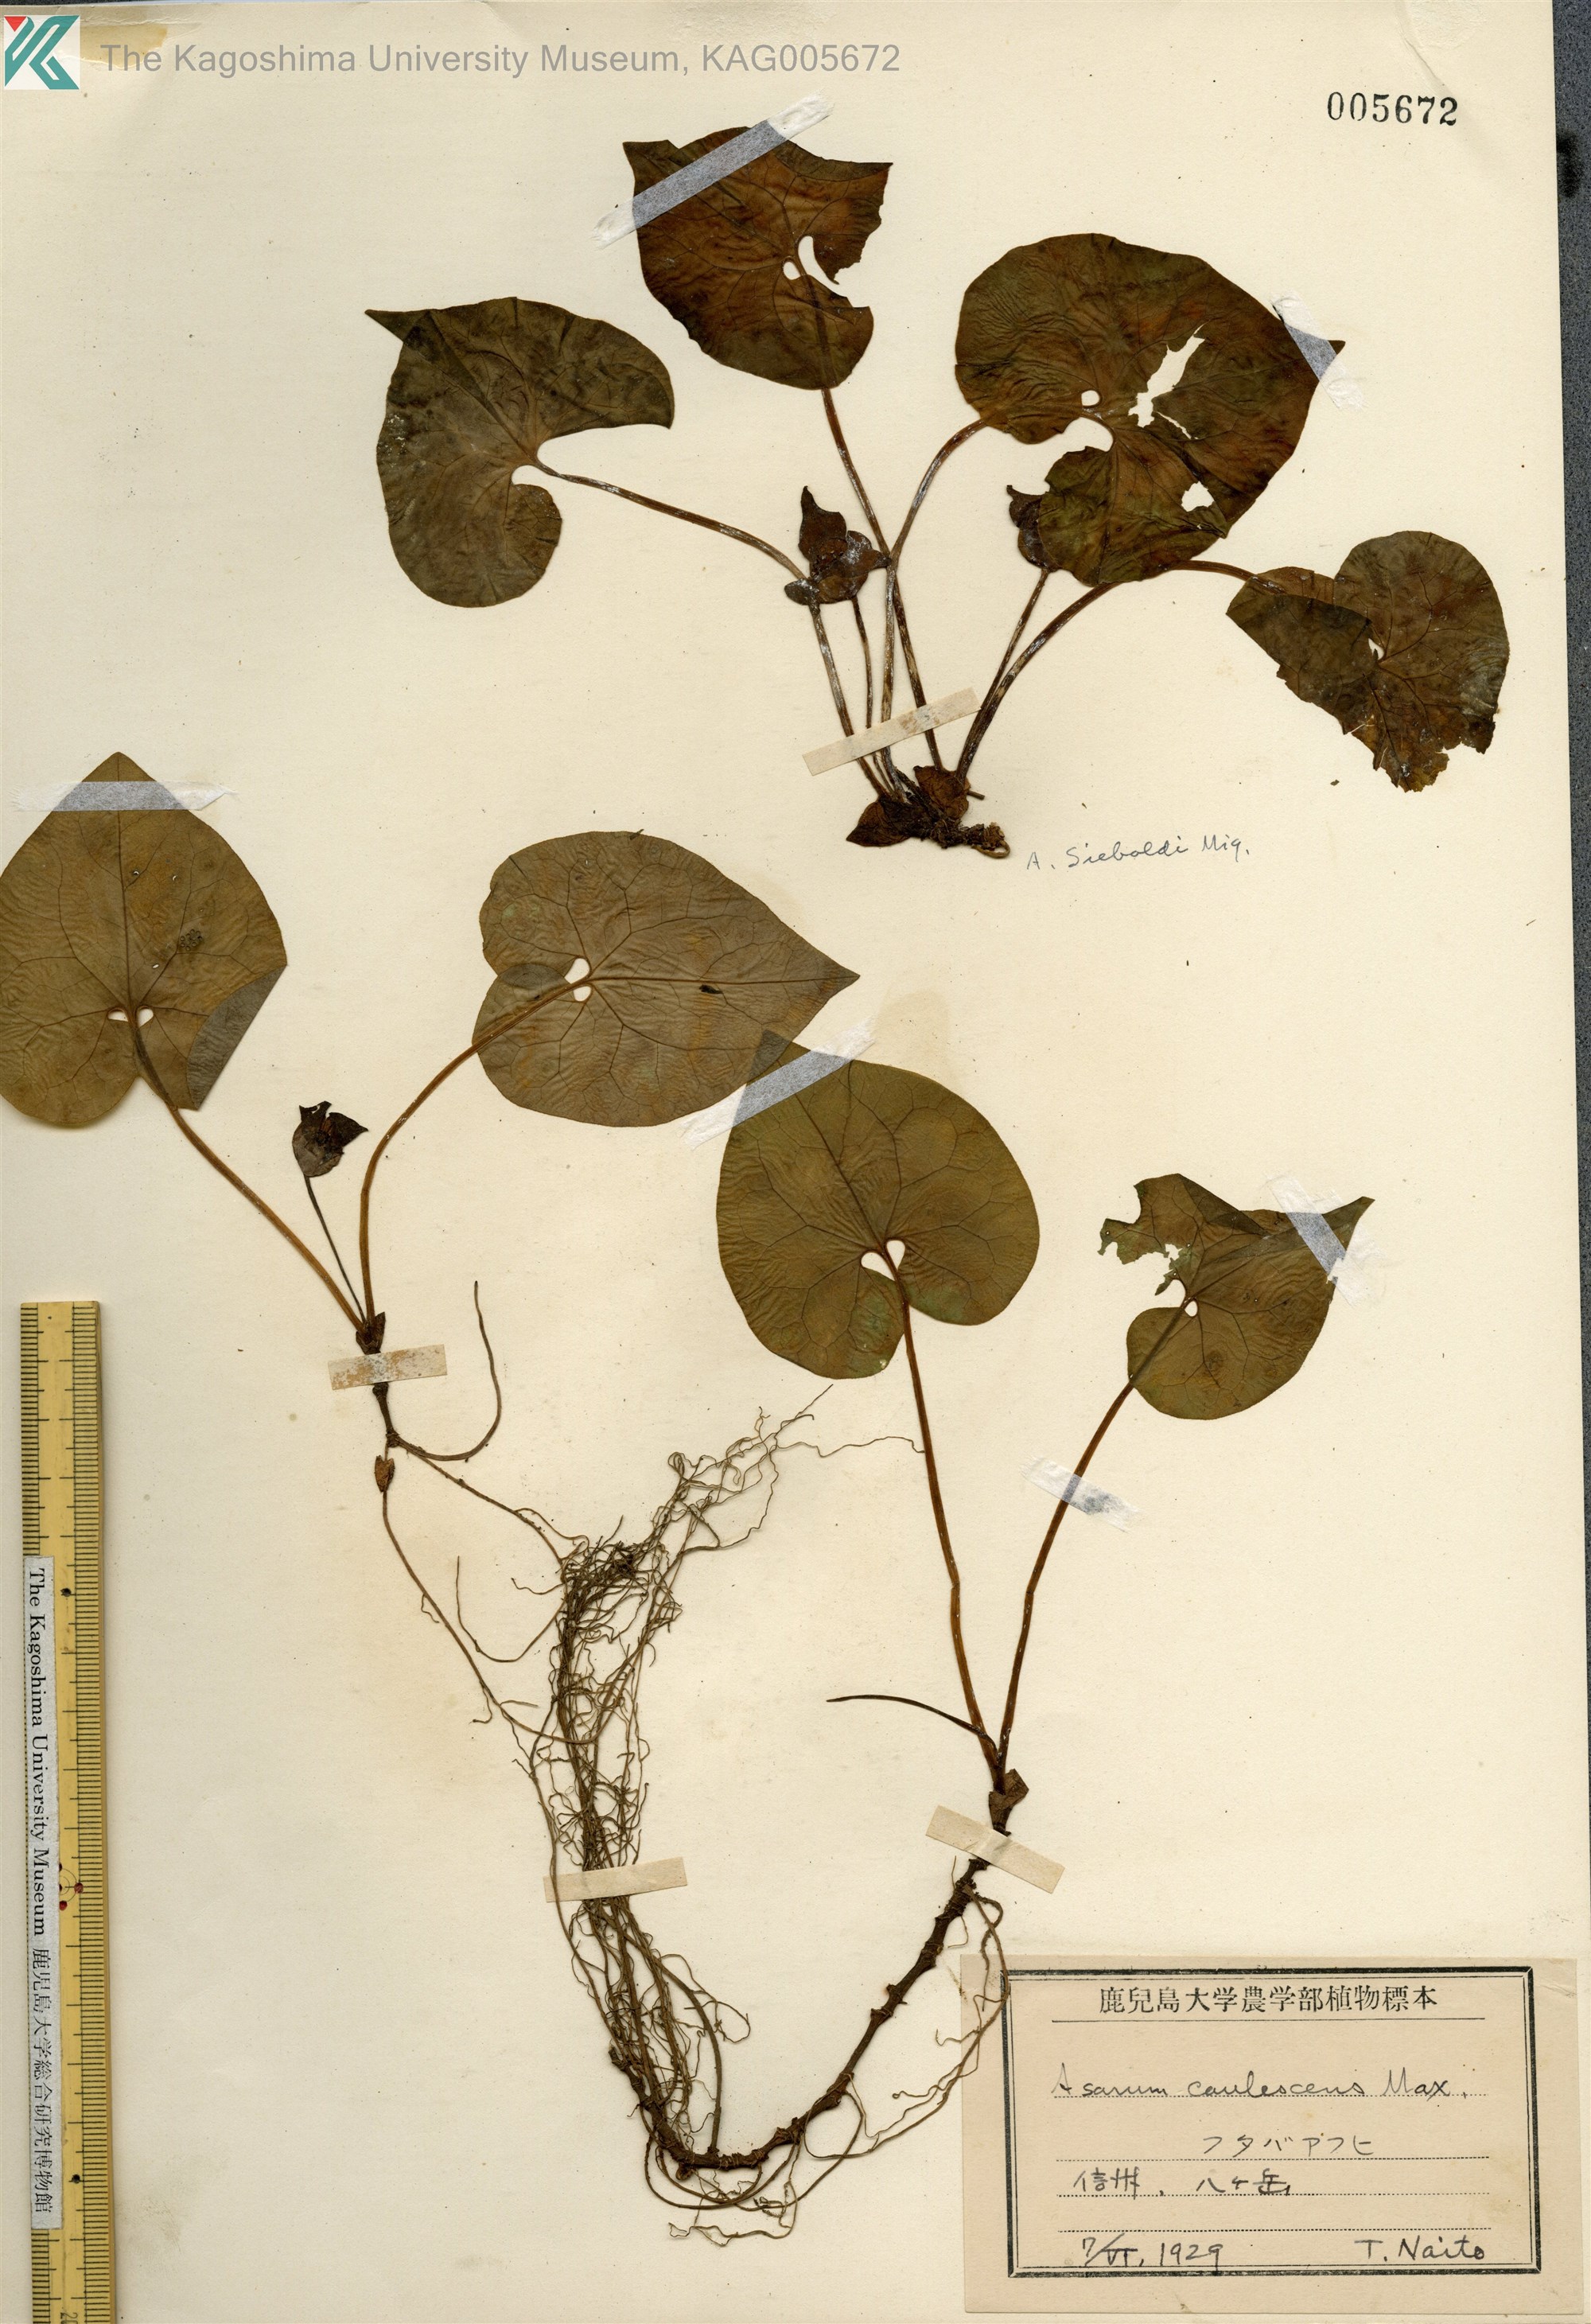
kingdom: Plantae
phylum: Tracheophyta
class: Magnoliopsida
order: Piperales
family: Aristolochiaceae
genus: Asarum
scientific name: Asarum sieboldii
